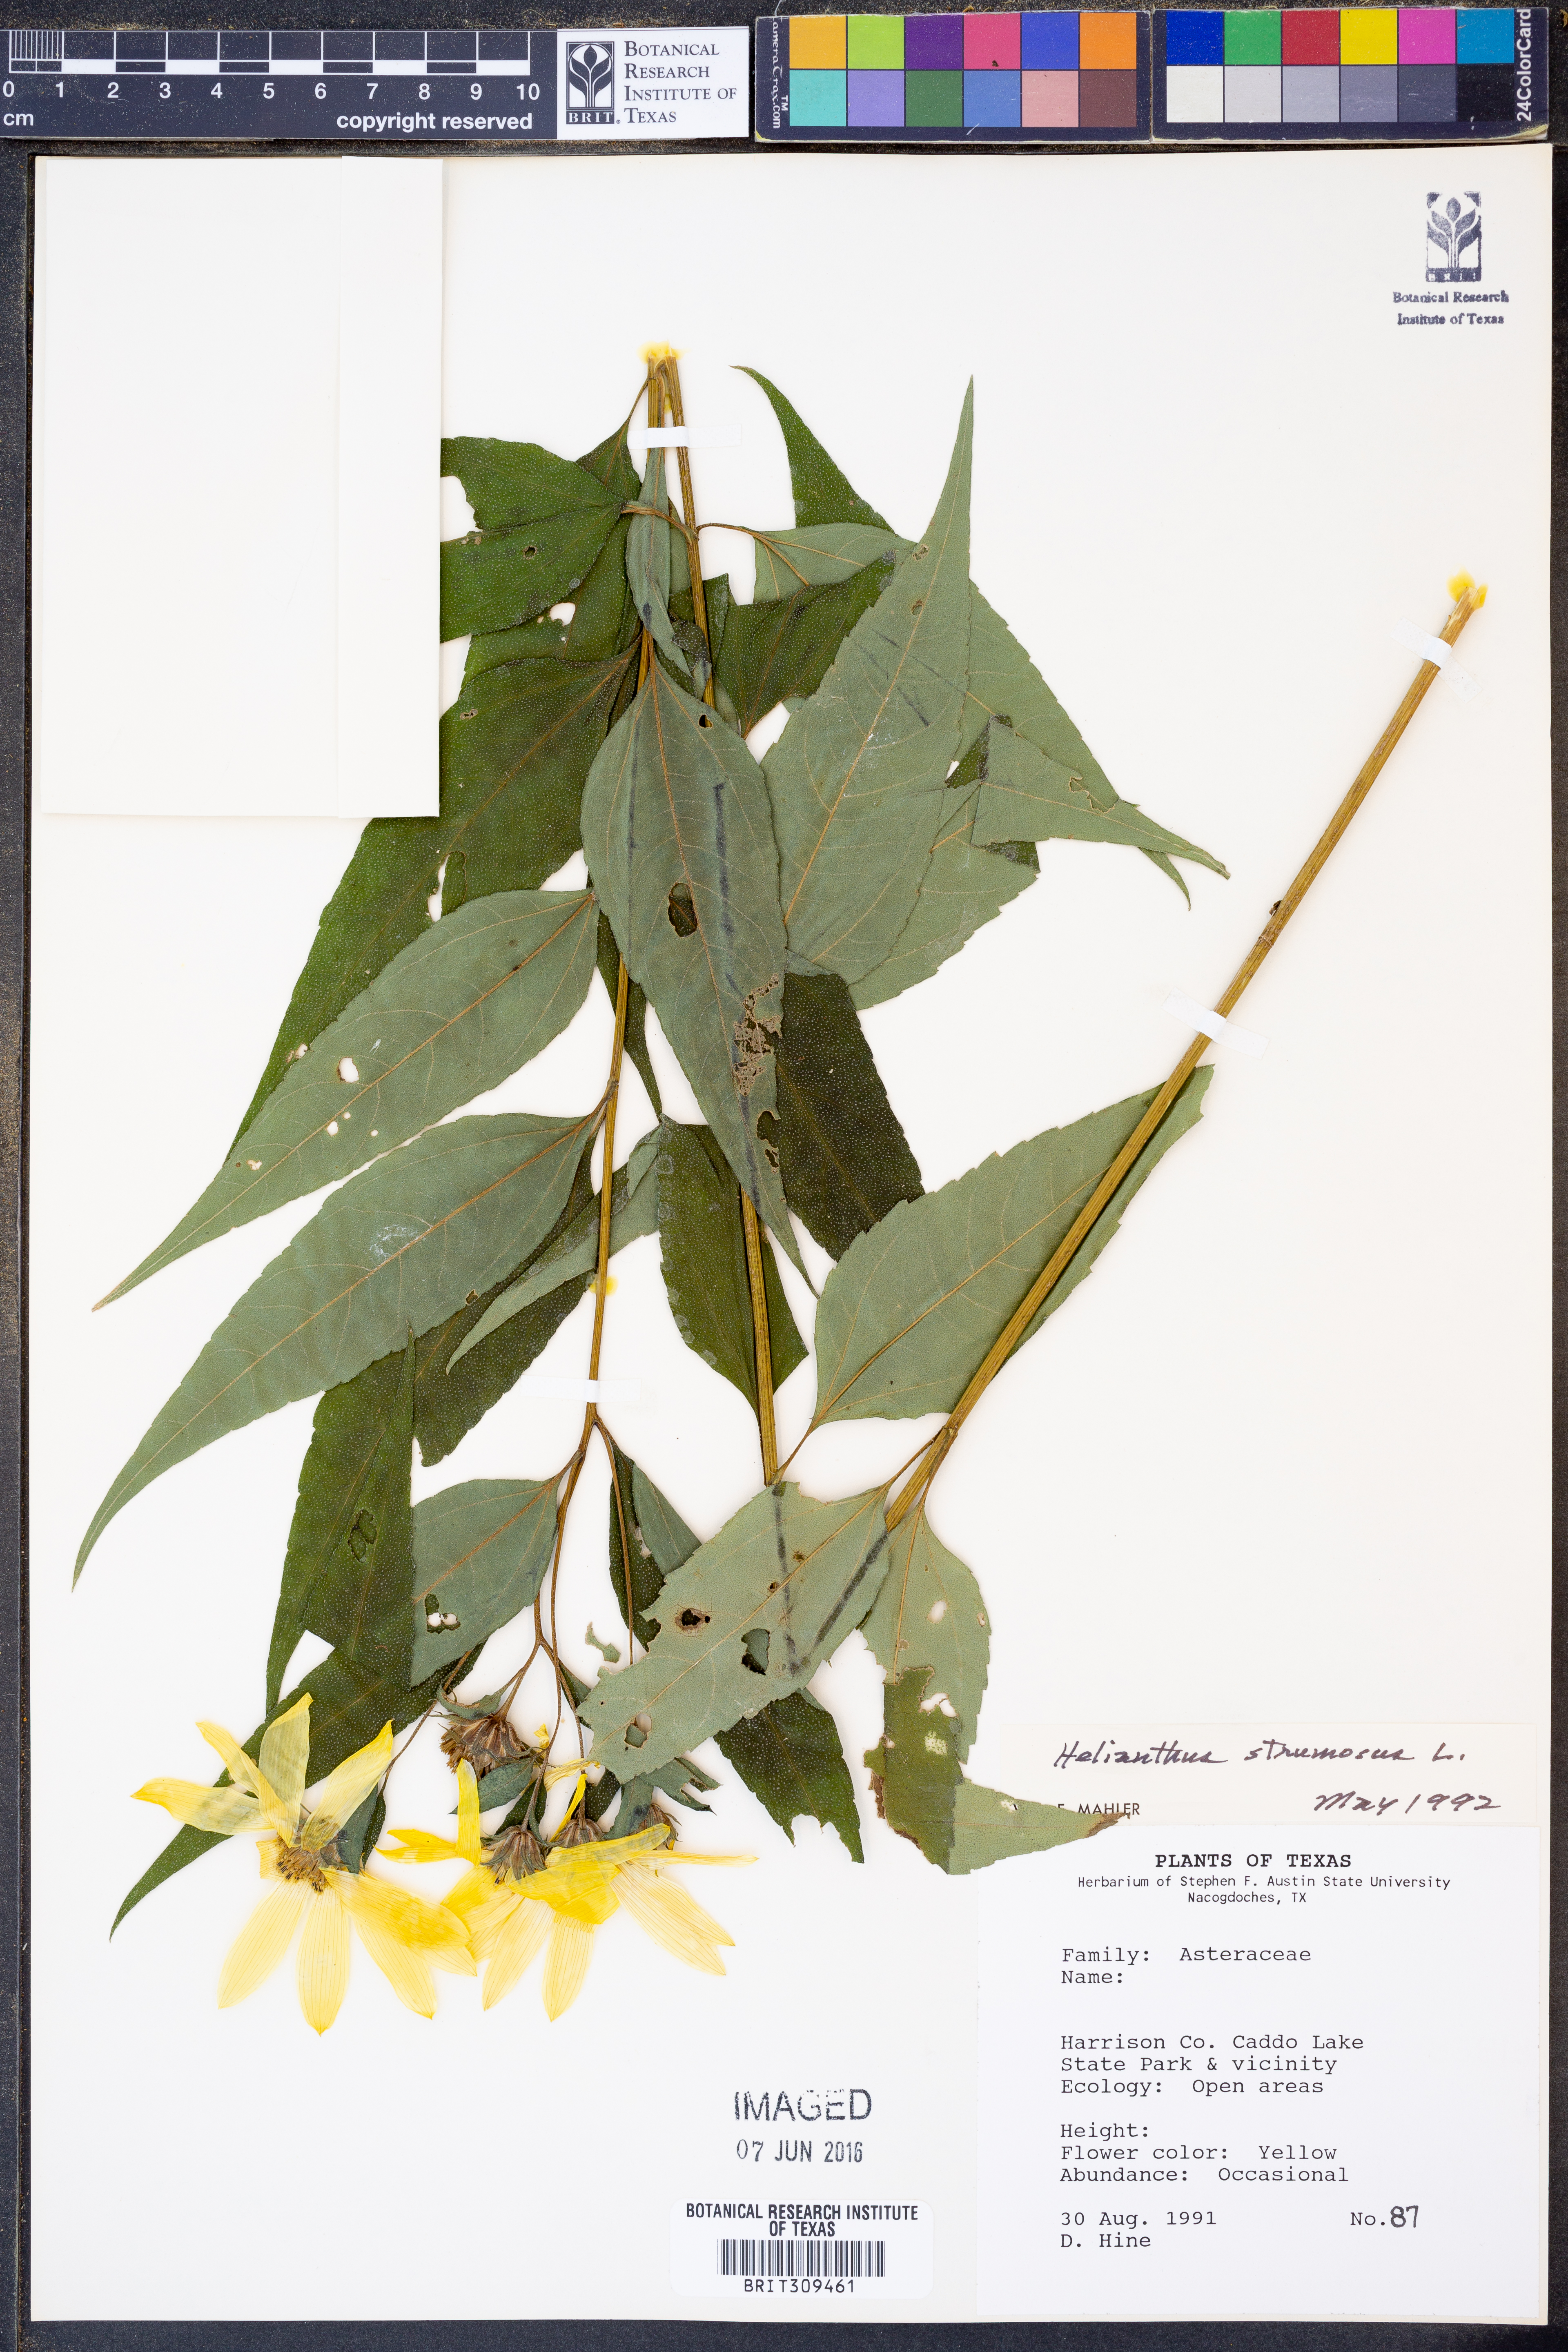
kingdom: Plantae
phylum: Tracheophyta
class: Magnoliopsida
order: Asterales
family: Asteraceae
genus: Helianthus
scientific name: Helianthus strumosus
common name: Pale-leaved sunflower
